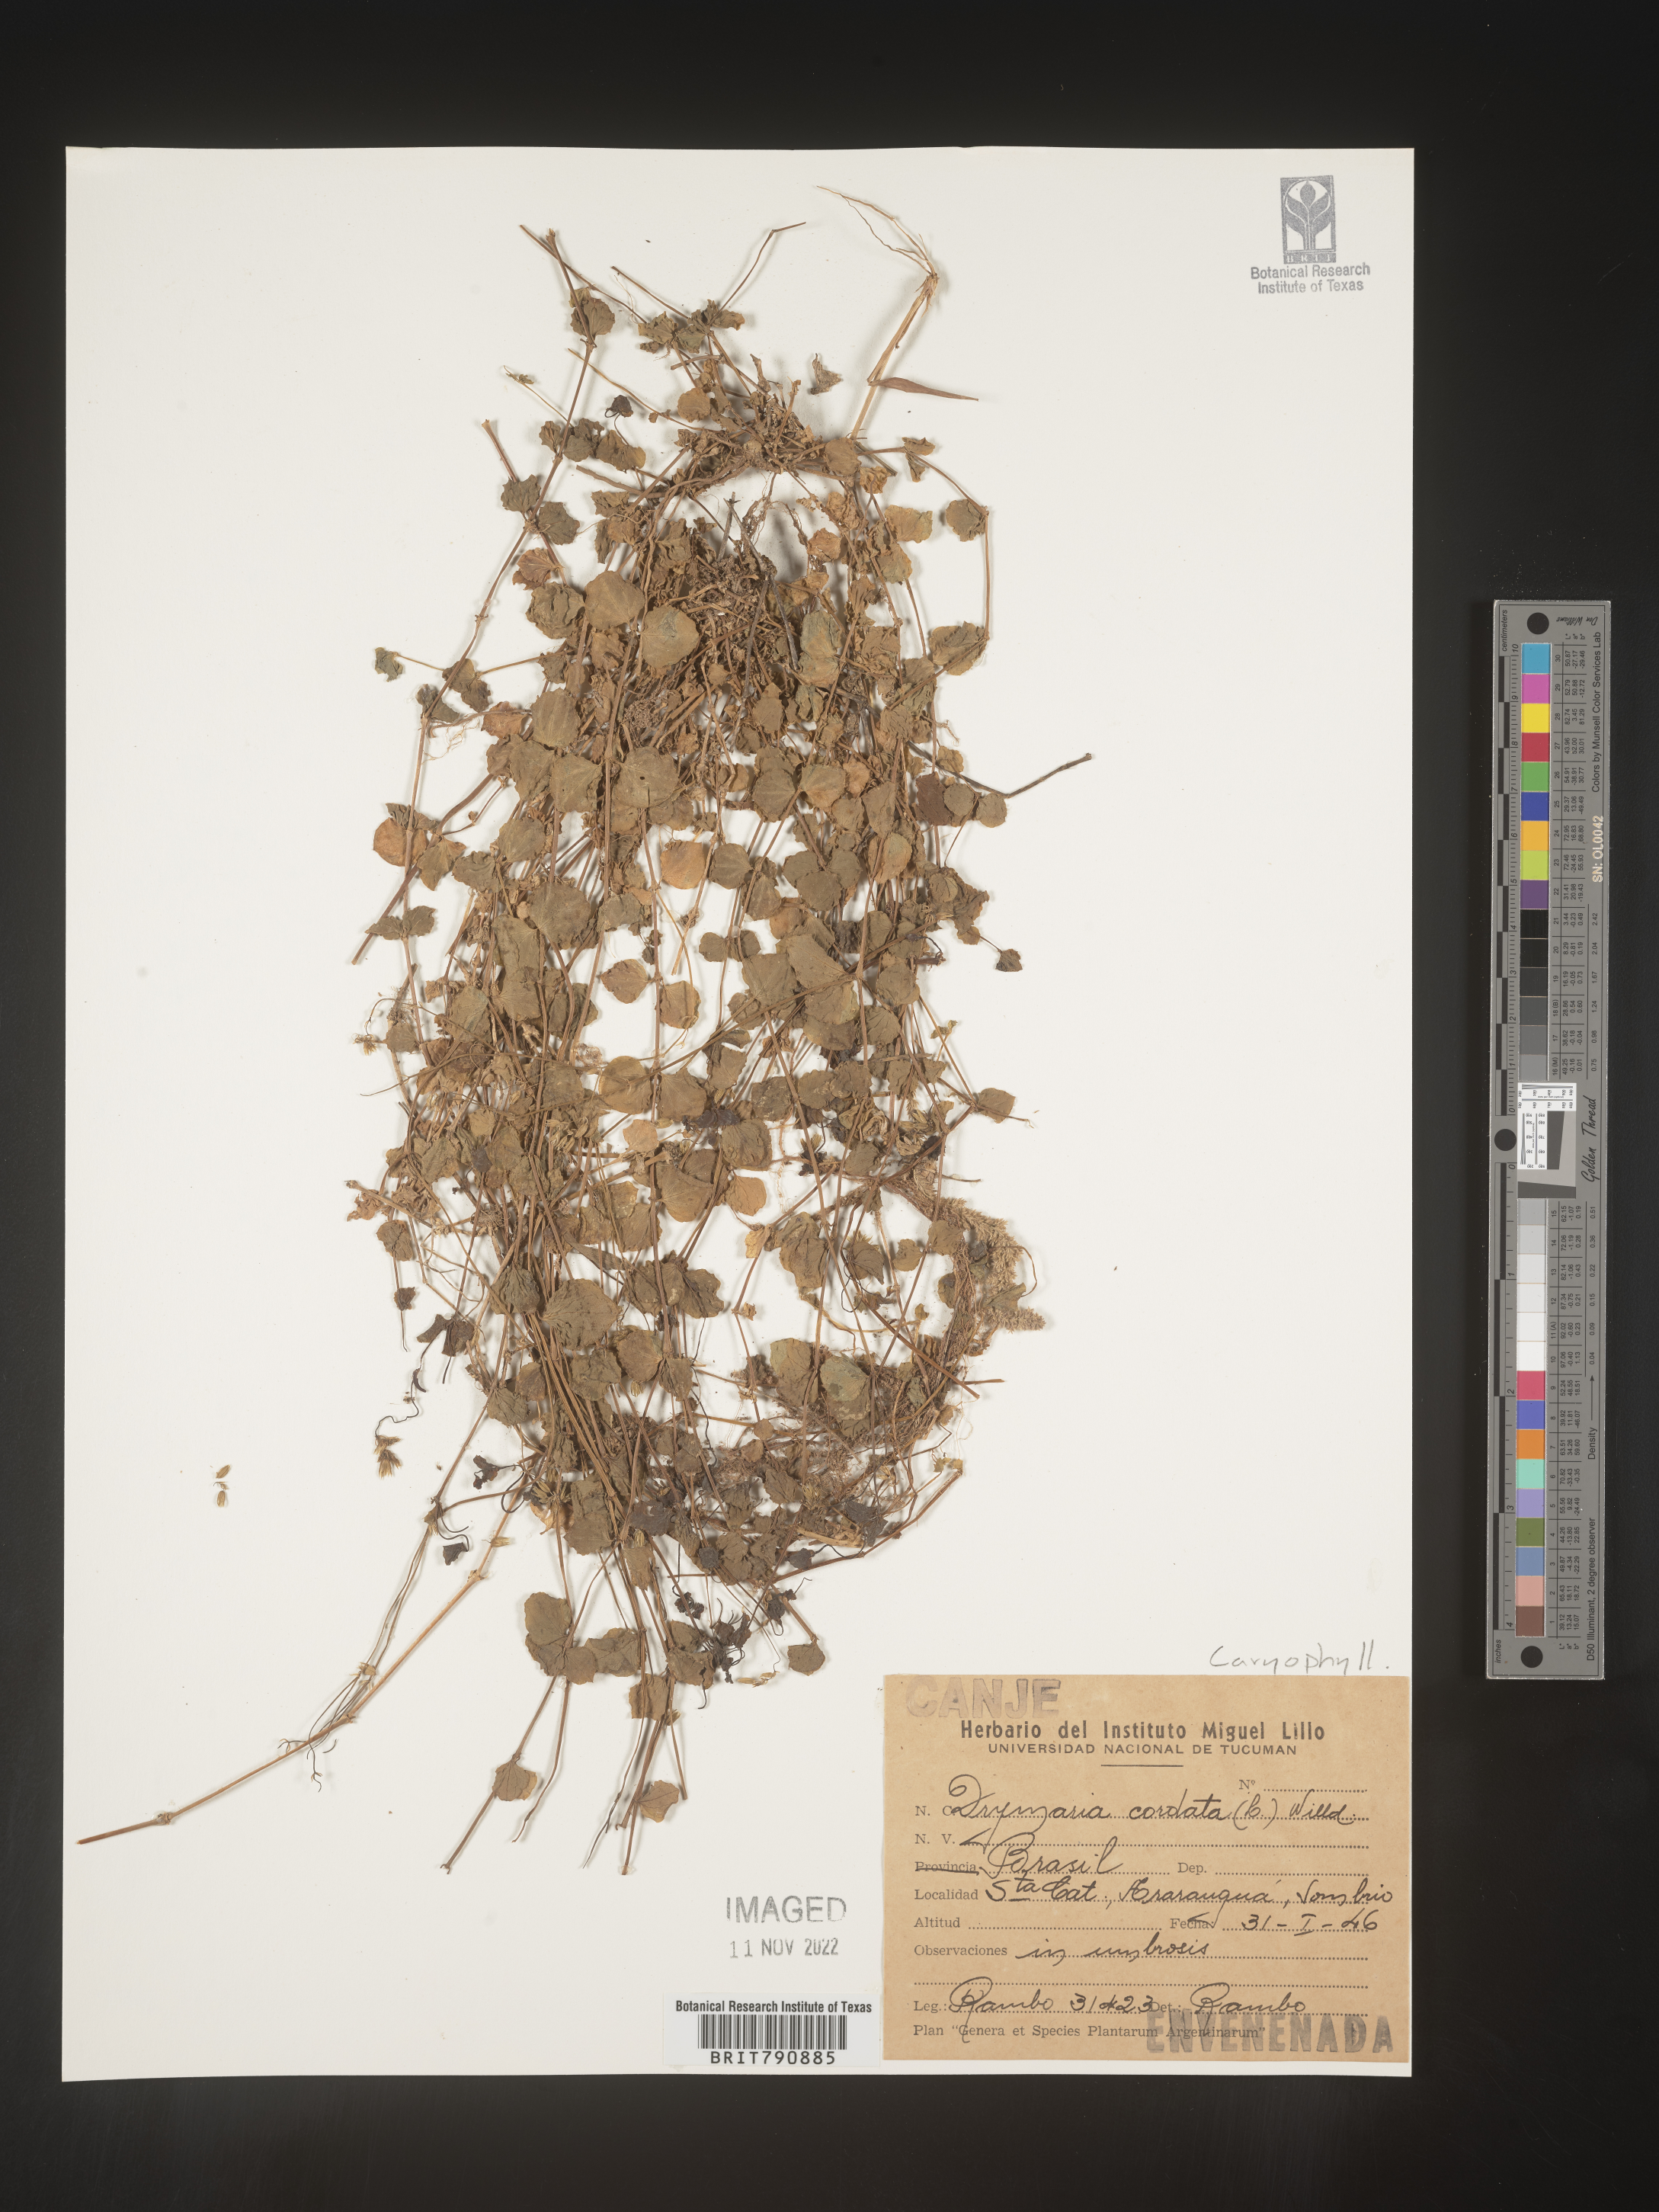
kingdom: Plantae
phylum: Tracheophyta
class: Magnoliopsida
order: Caryophyllales
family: Caryophyllaceae
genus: Drymaria
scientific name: Drymaria
